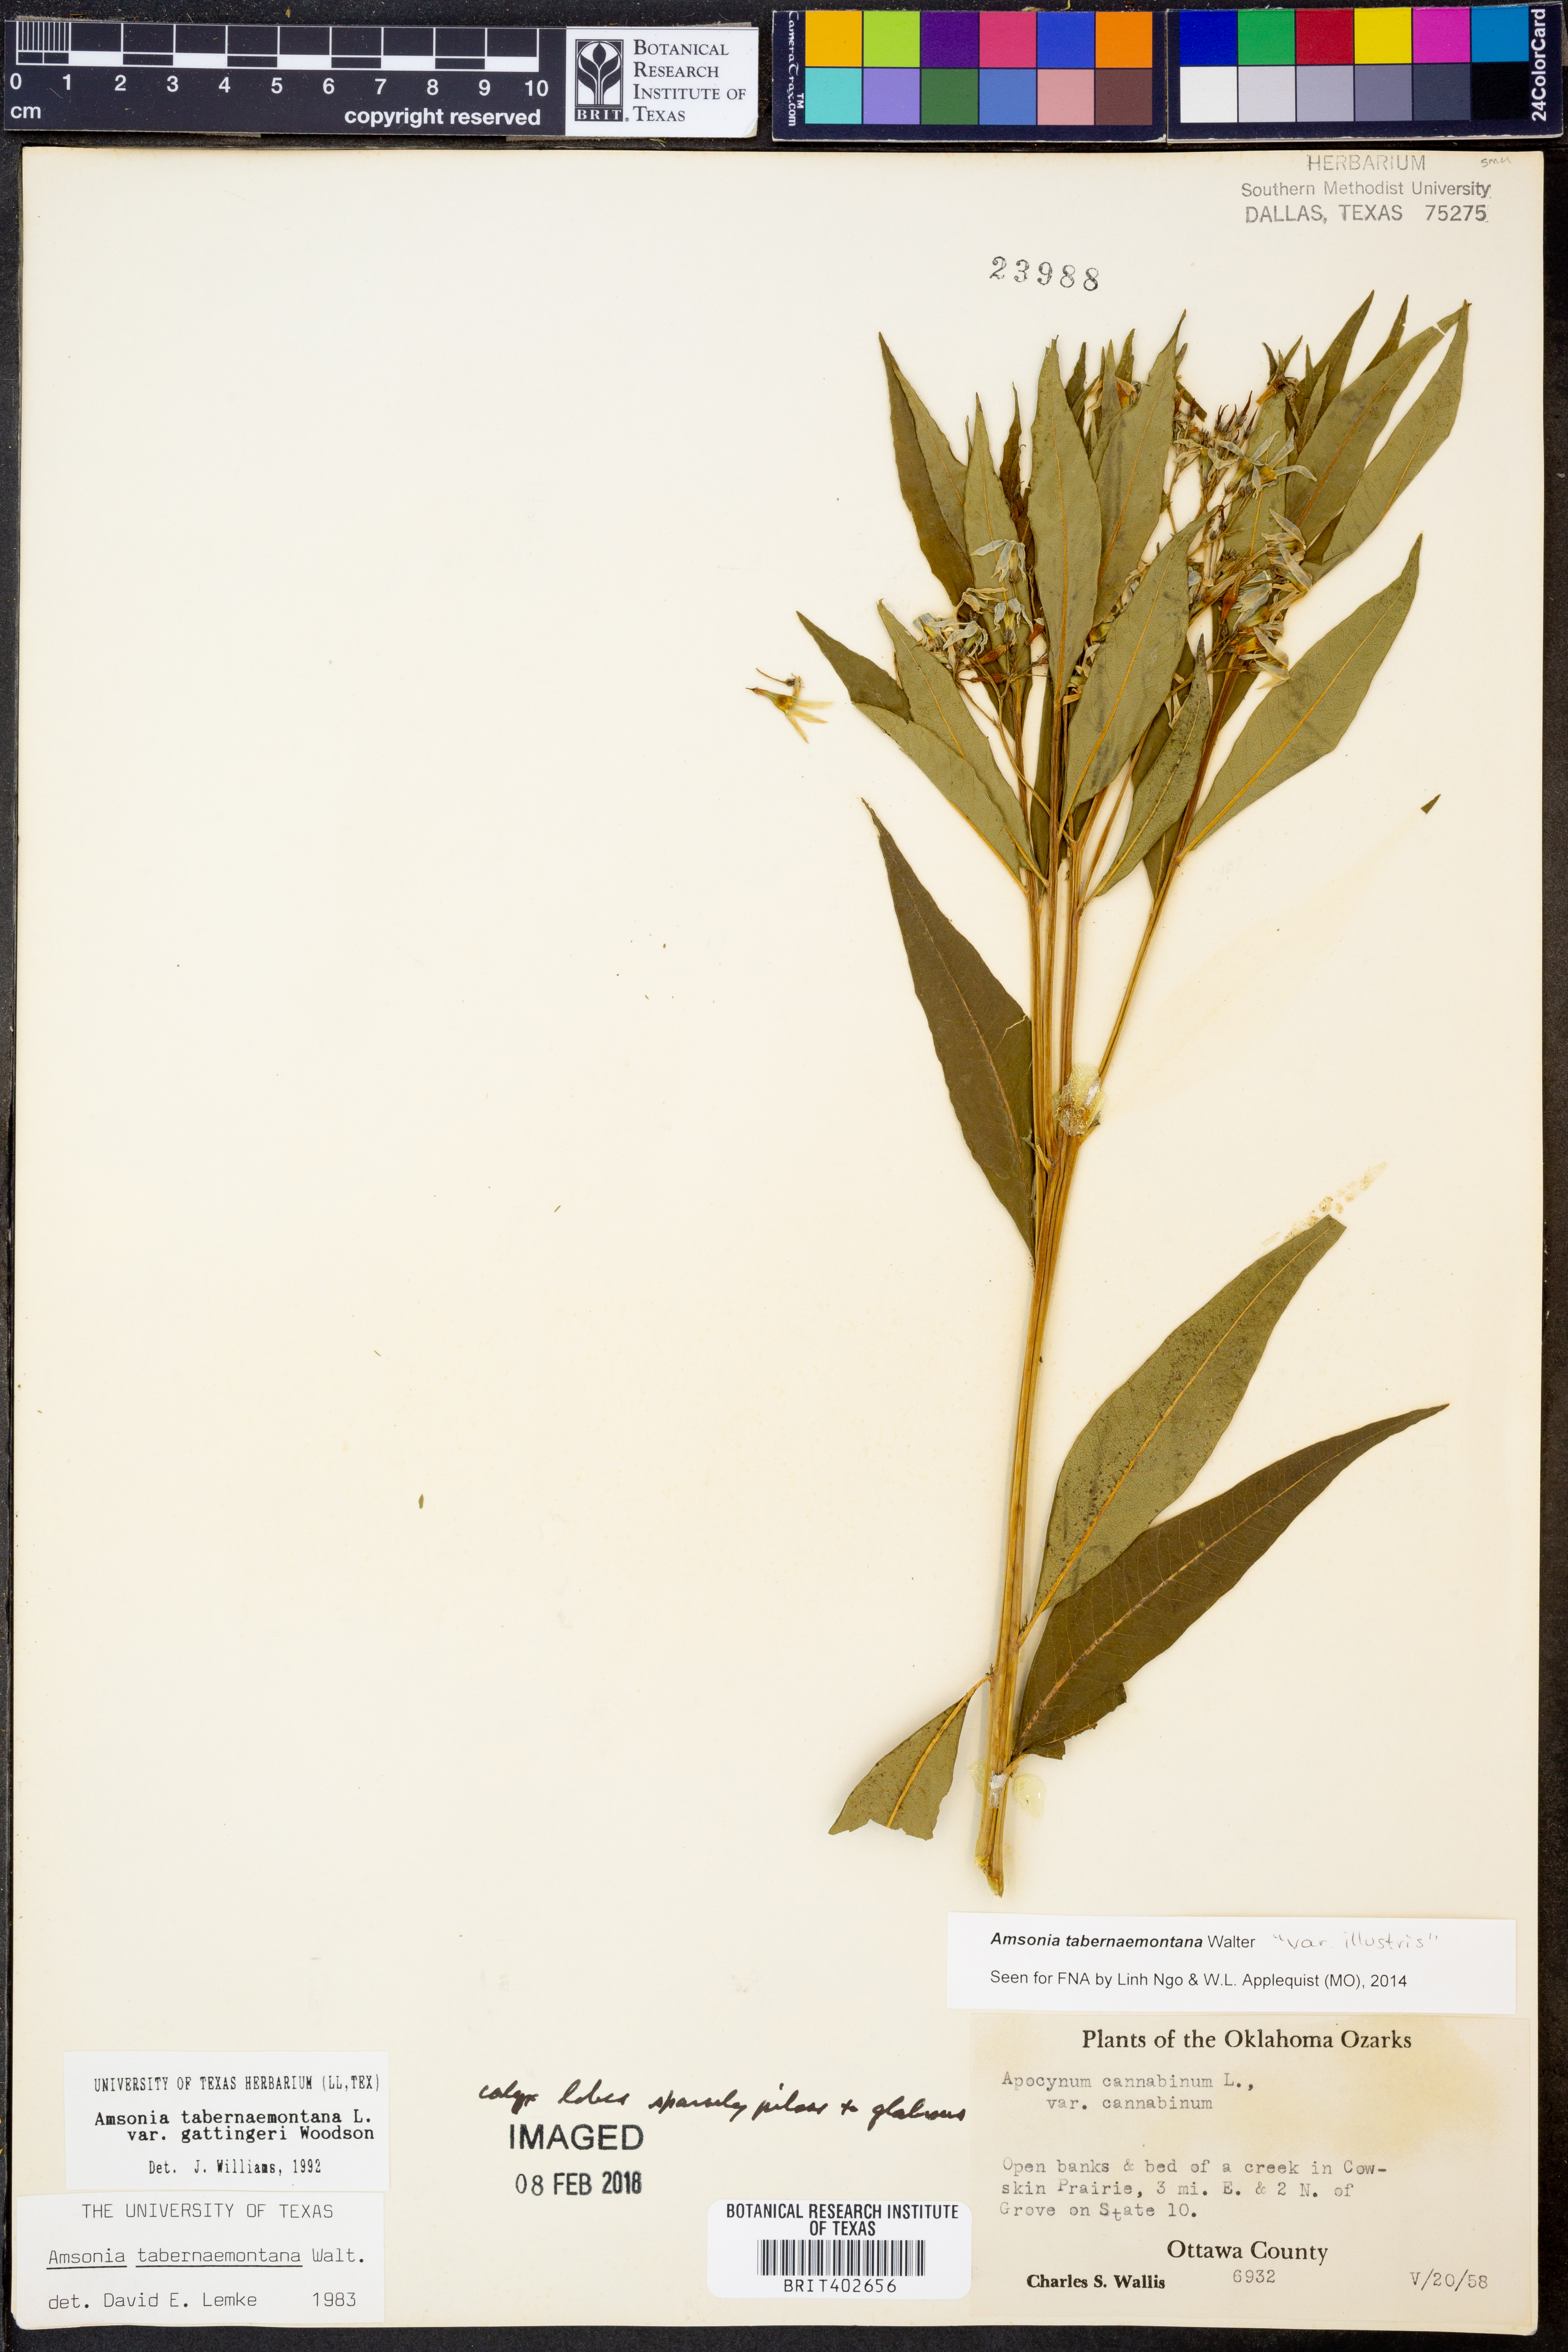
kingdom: Plantae
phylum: Tracheophyta
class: Magnoliopsida
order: Gentianales
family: Apocynaceae
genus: Amsonia
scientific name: Amsonia tabernaemontana
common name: Texas-star
